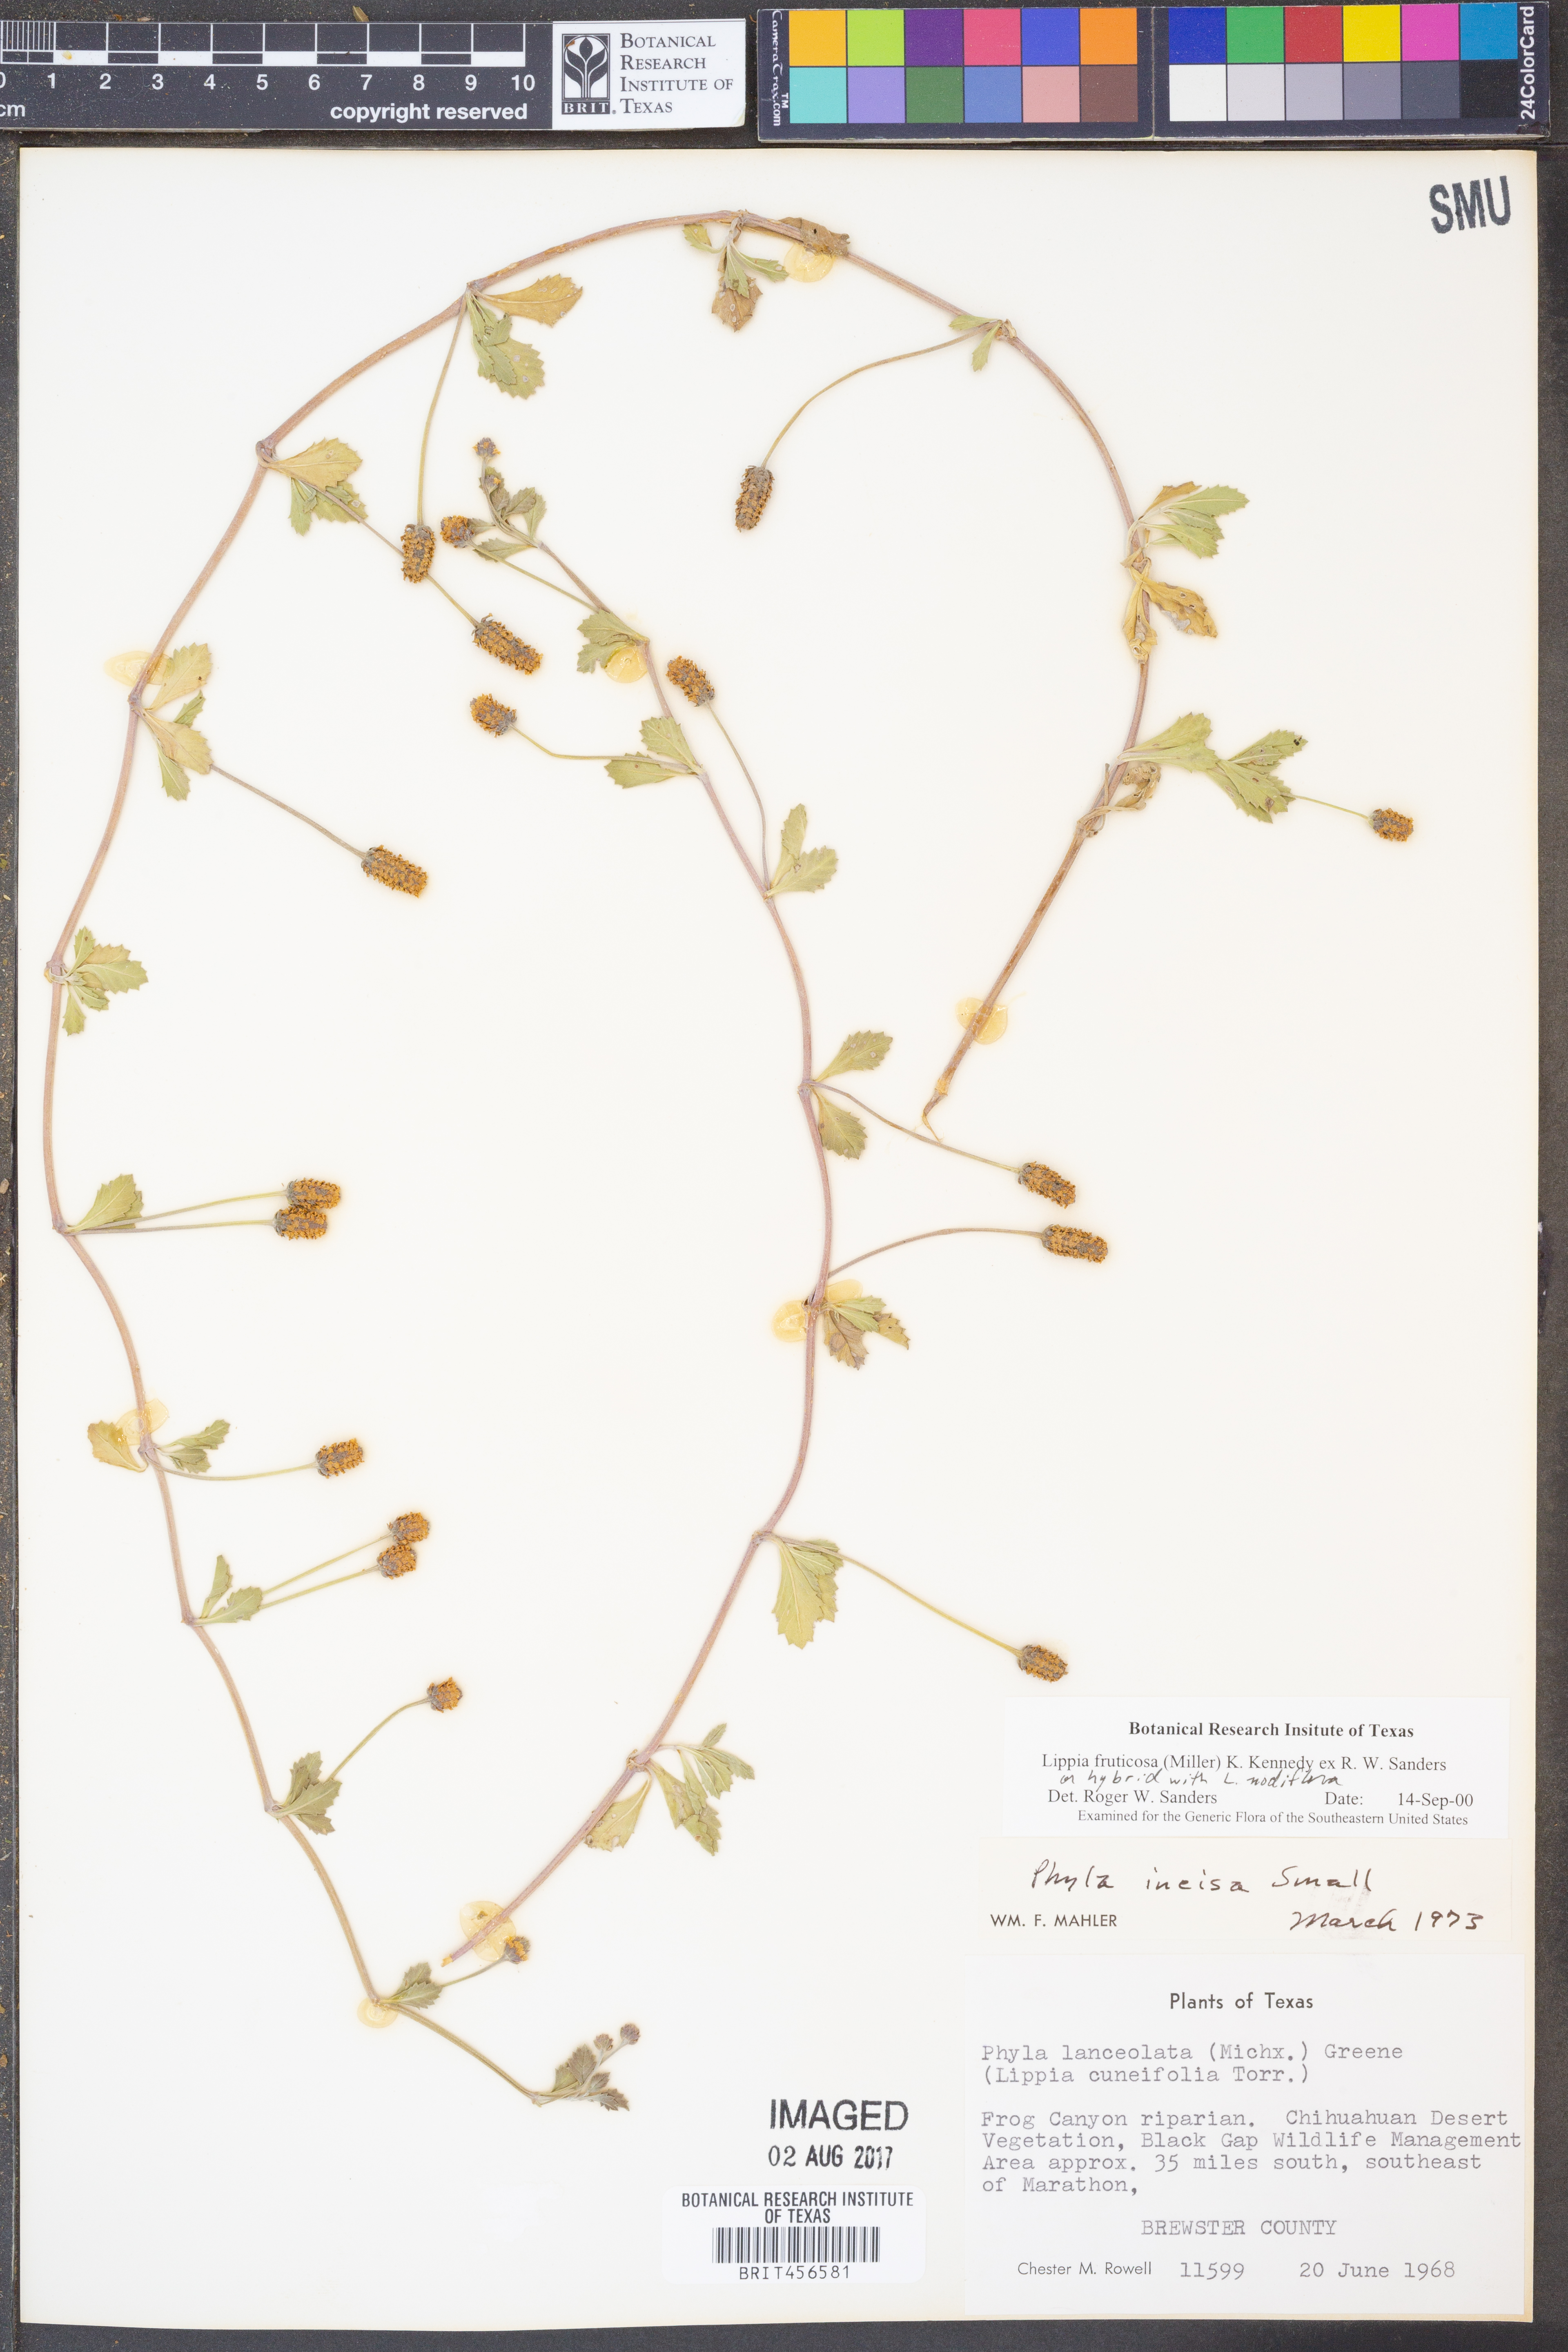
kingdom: Plantae
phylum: Tracheophyta
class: Magnoliopsida
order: Lamiales
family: Verbenaceae
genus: Phyla
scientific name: Phyla nodiflora
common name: Frogfruit
